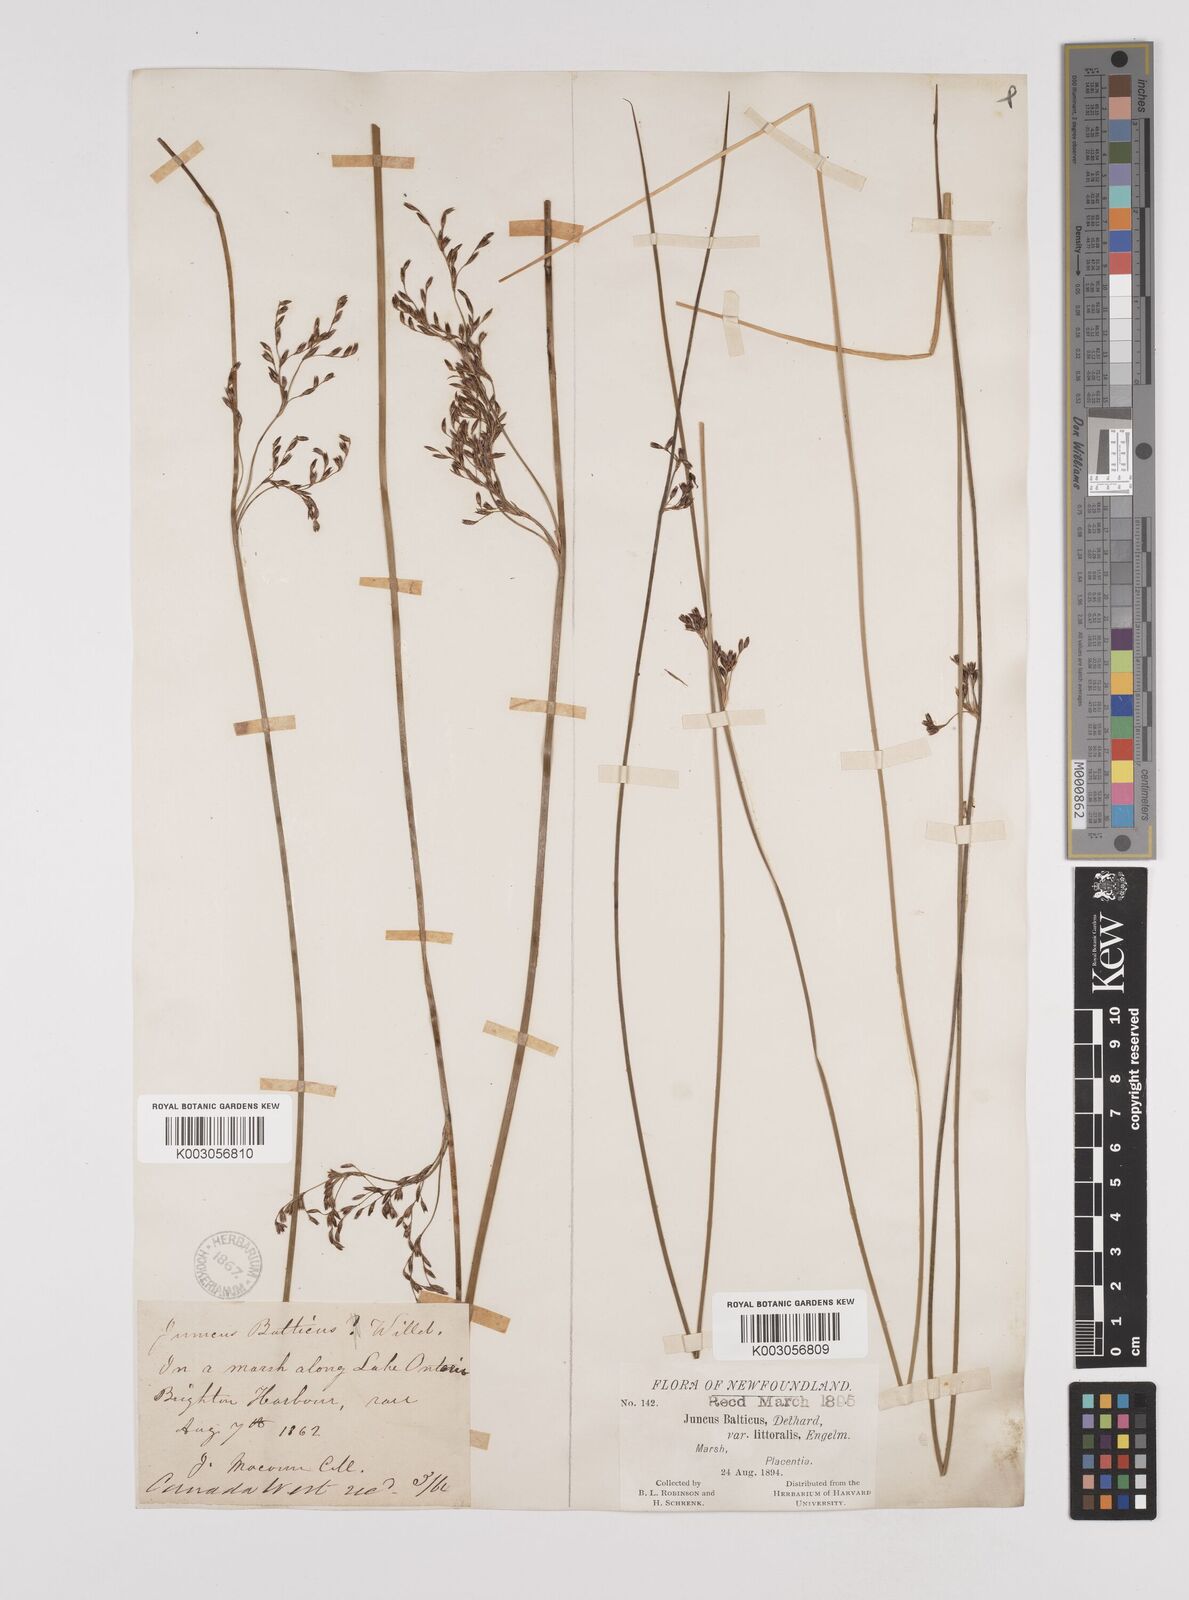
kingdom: Plantae
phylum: Tracheophyta
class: Liliopsida
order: Poales
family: Juncaceae
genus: Juncus
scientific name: Juncus balticus
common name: Baltic rush
